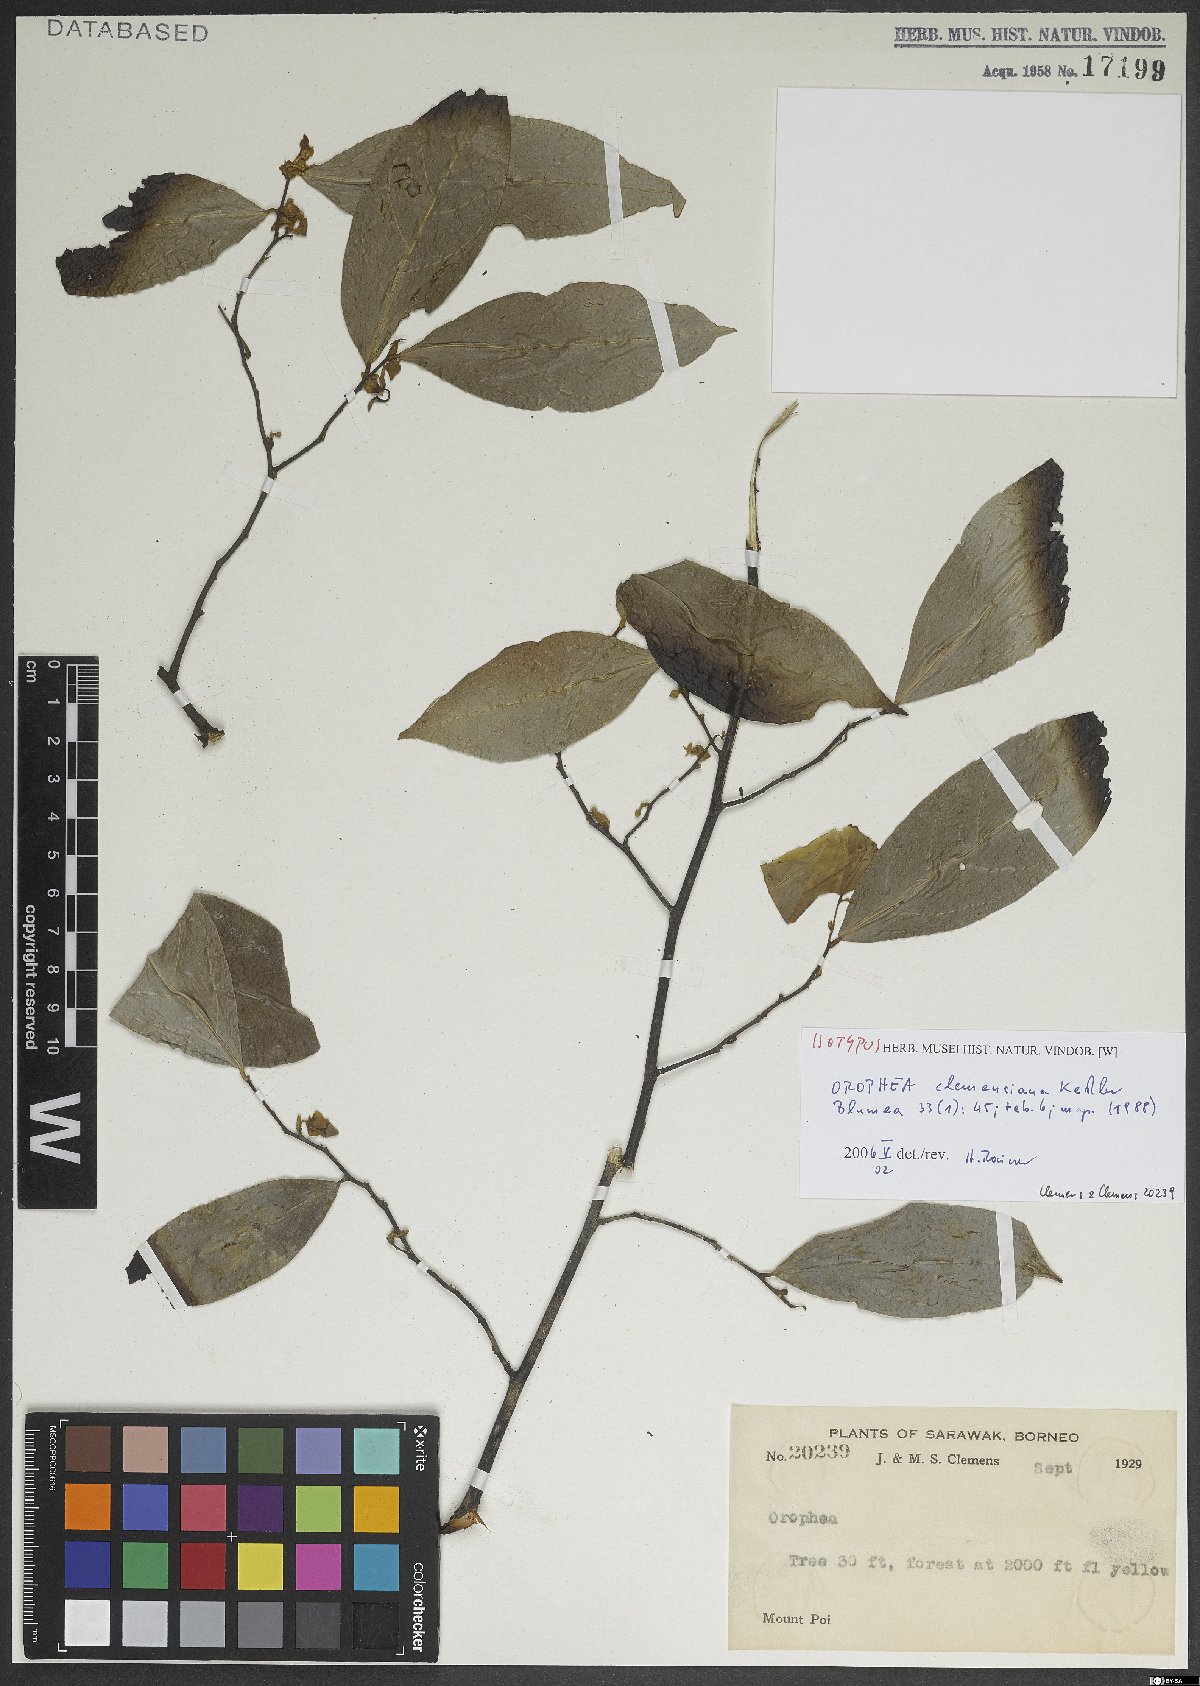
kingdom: Plantae
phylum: Tracheophyta
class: Magnoliopsida
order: Magnoliales
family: Annonaceae
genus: Orophea
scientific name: Orophea clemensiana
